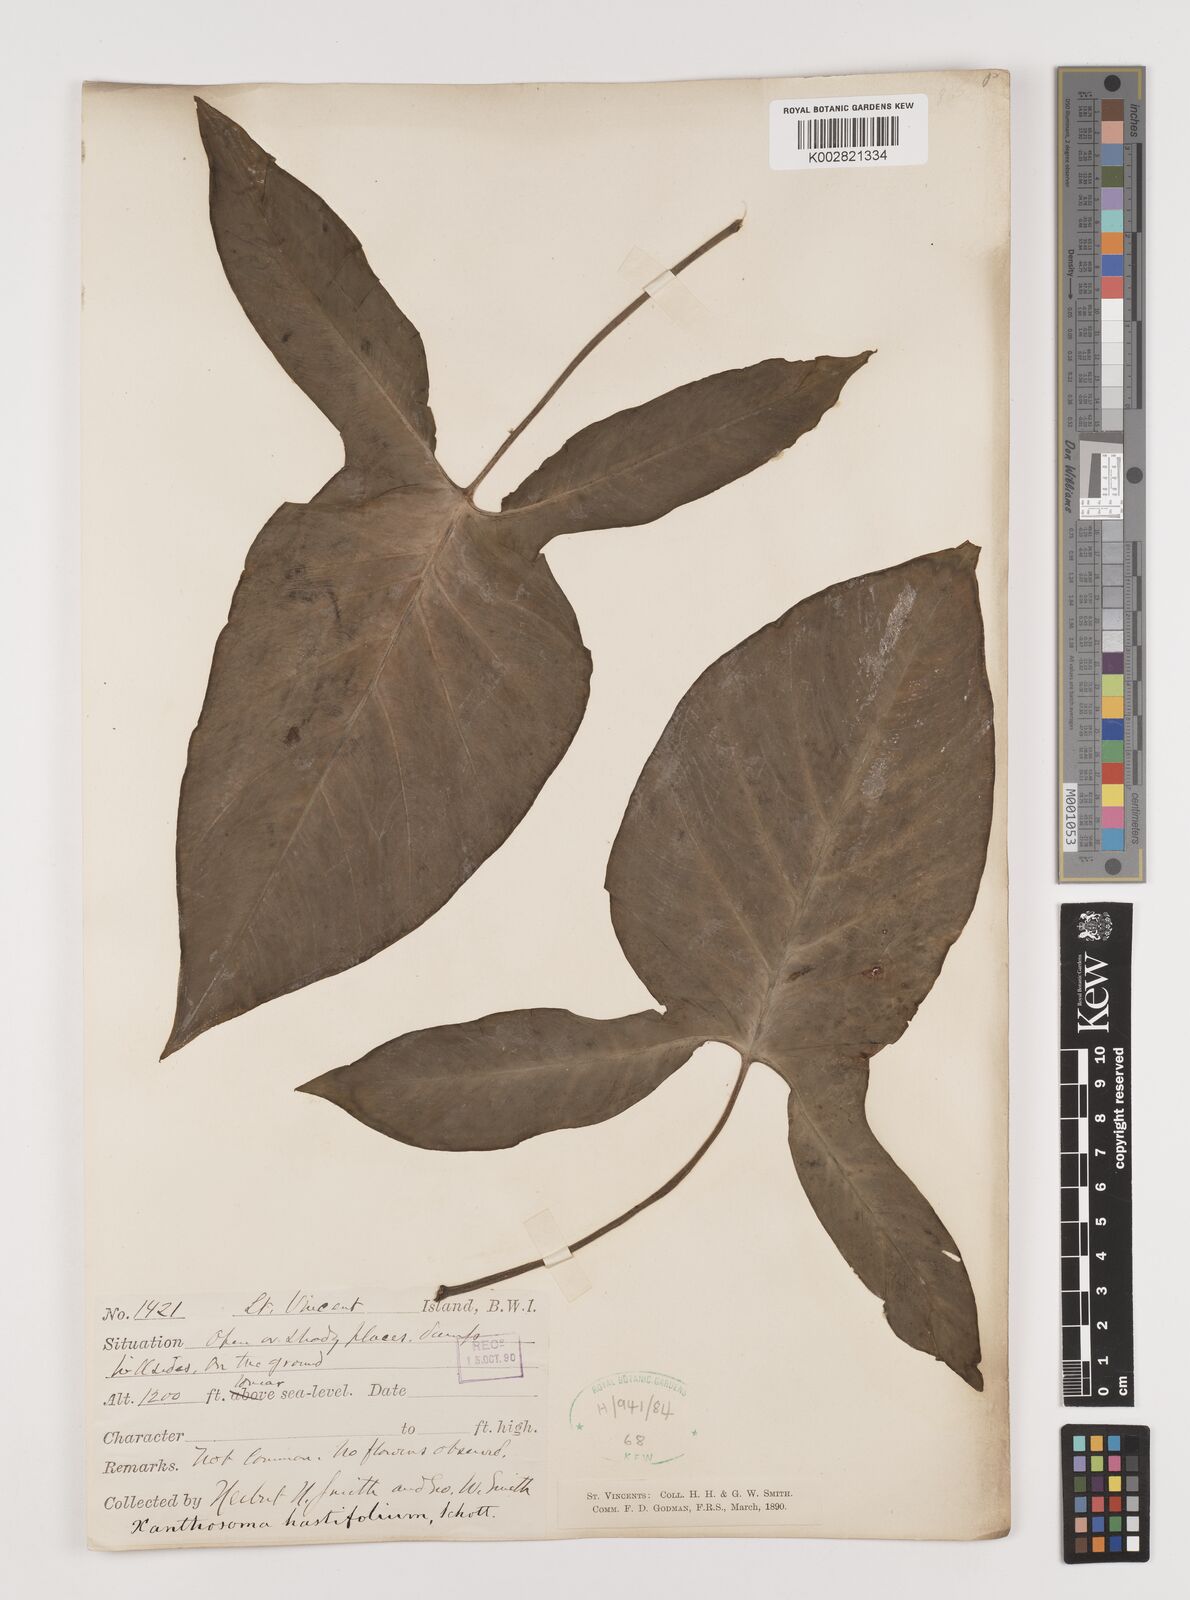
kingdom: Plantae
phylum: Tracheophyta
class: Liliopsida
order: Alismatales
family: Araceae
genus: Xanthosoma
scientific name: Xanthosoma brasiliense
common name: Tahitian-spinach
